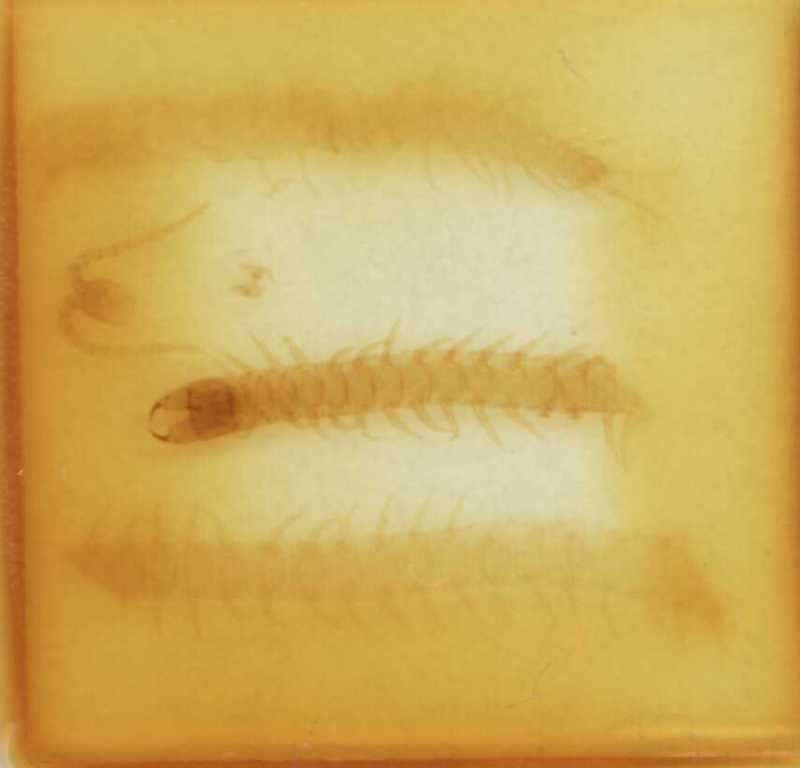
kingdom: Animalia
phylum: Arthropoda
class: Chilopoda
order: Geophilomorpha
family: Geophilidae
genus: Eurytion
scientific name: Eurytion trichopus
